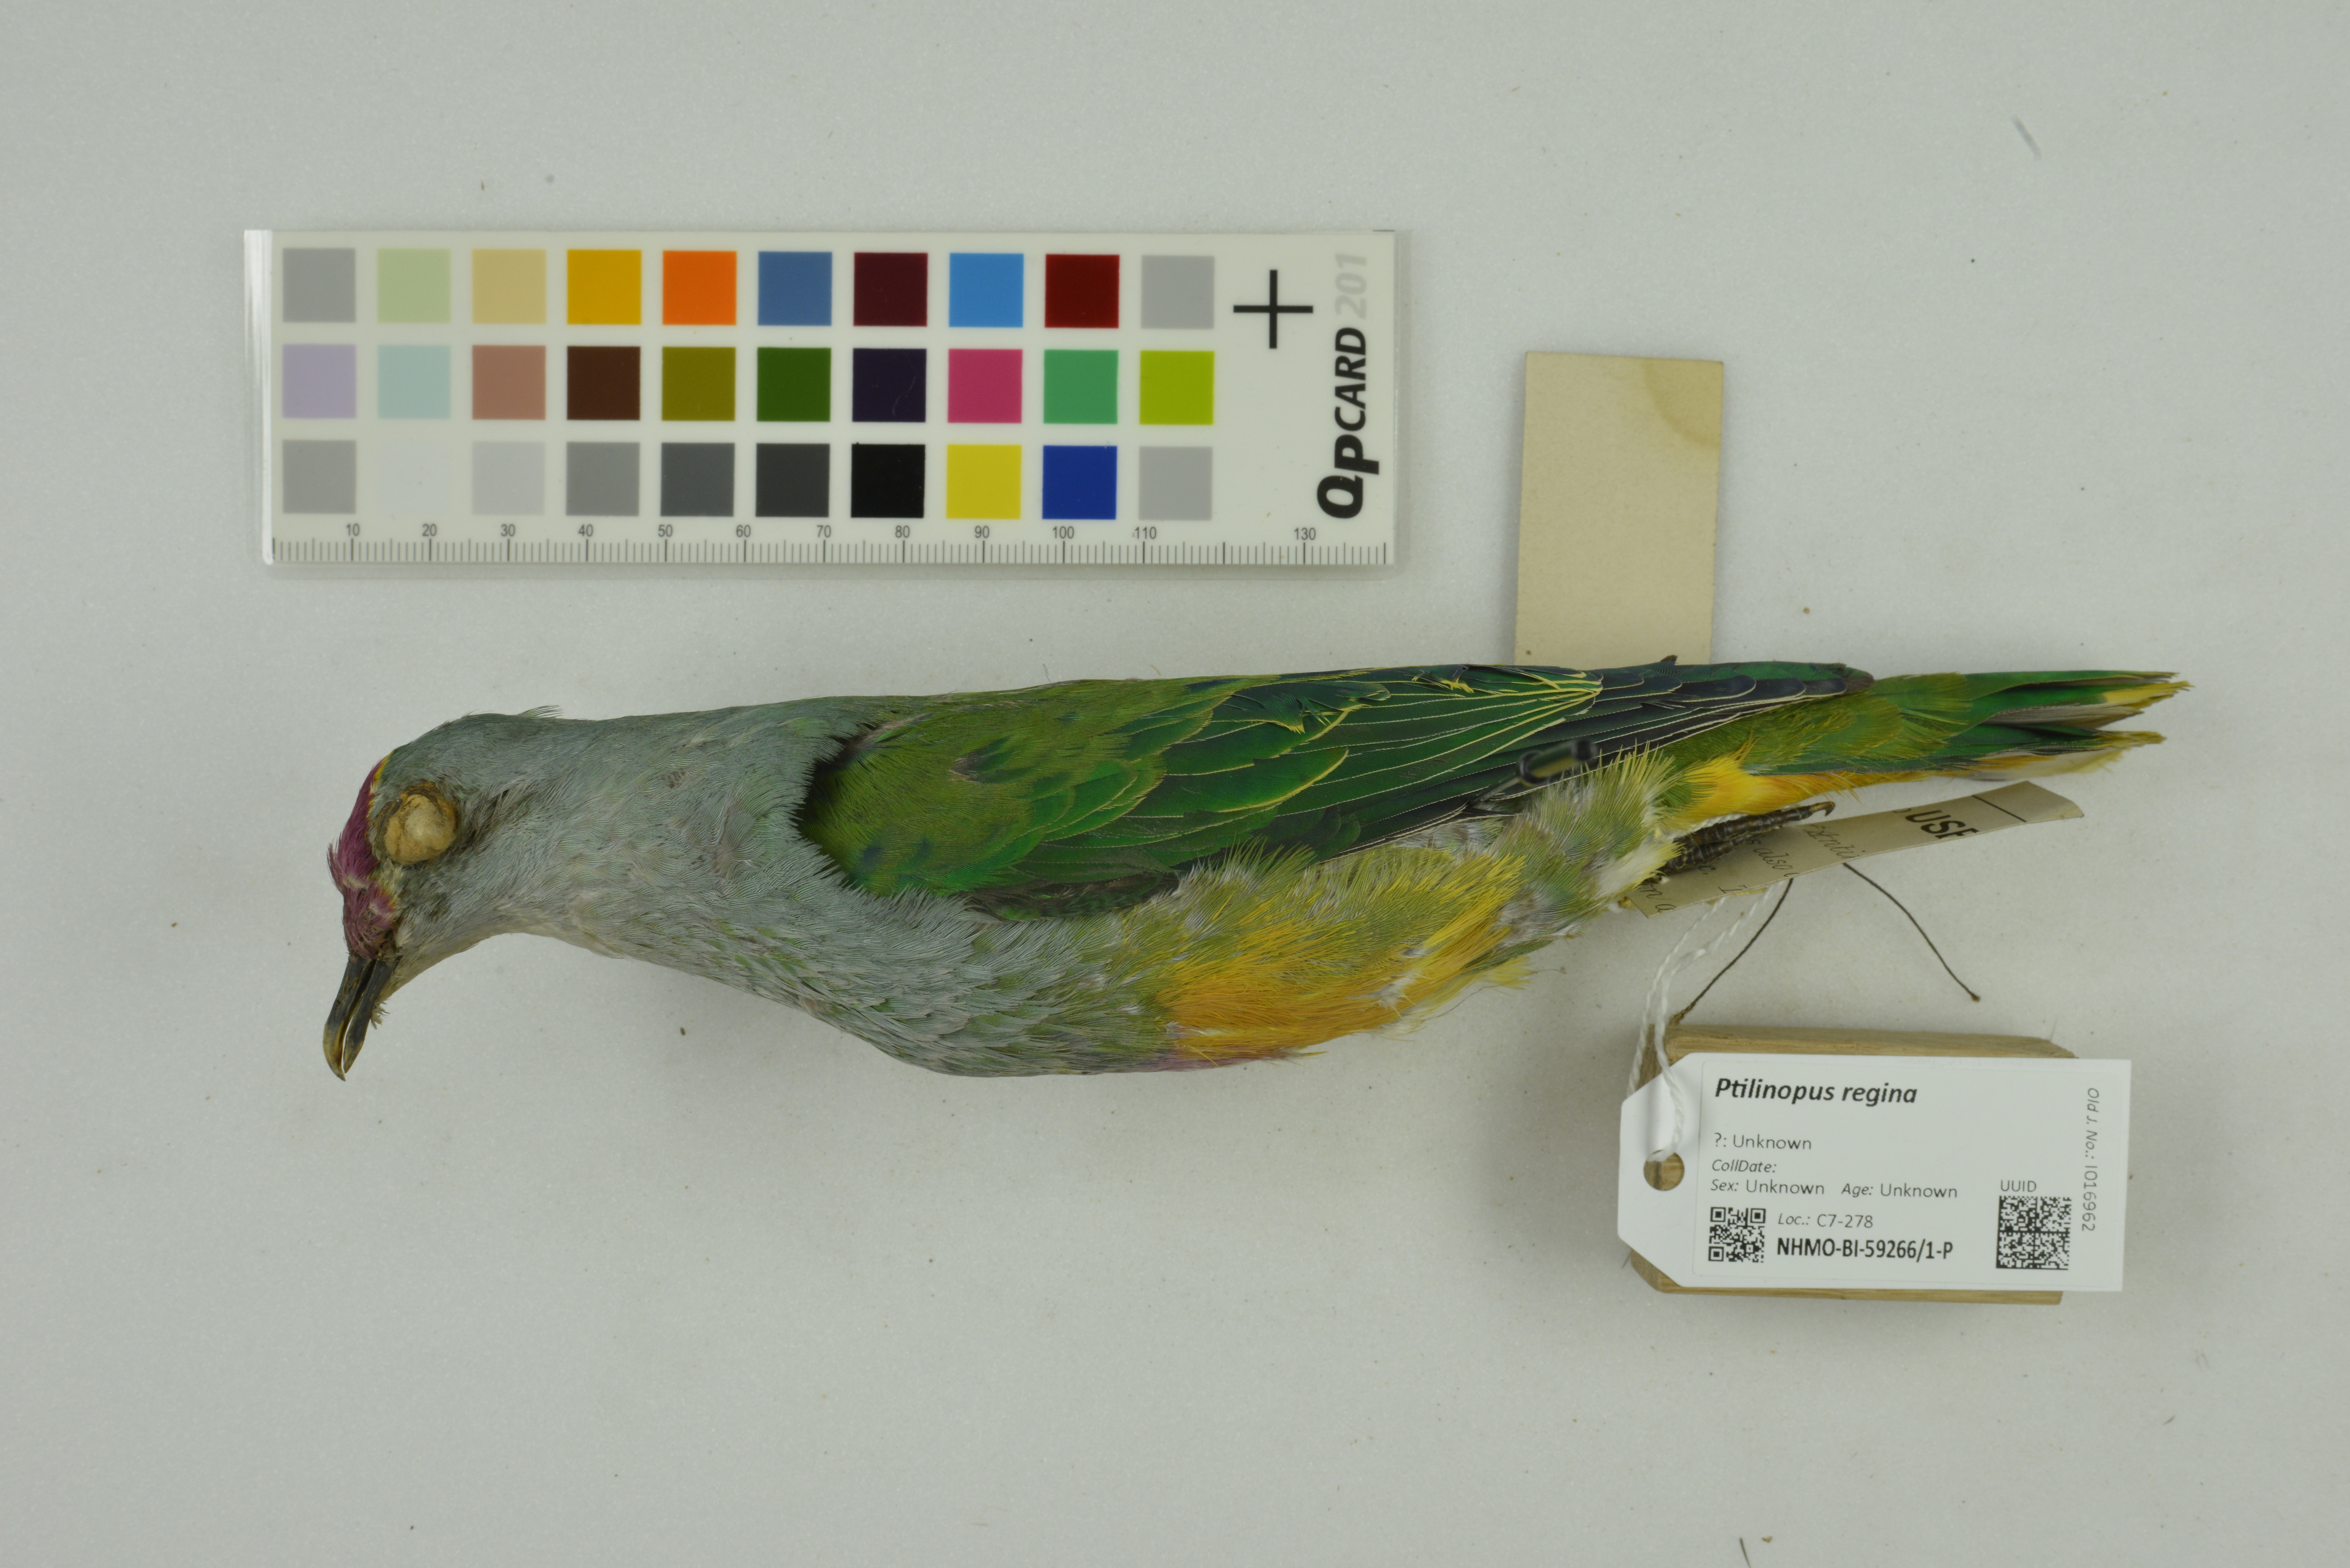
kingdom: Animalia
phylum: Chordata
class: Aves
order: Columbiformes
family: Columbidae
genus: Ptilinopus
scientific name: Ptilinopus regina
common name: Rose-crowned fruit dove
